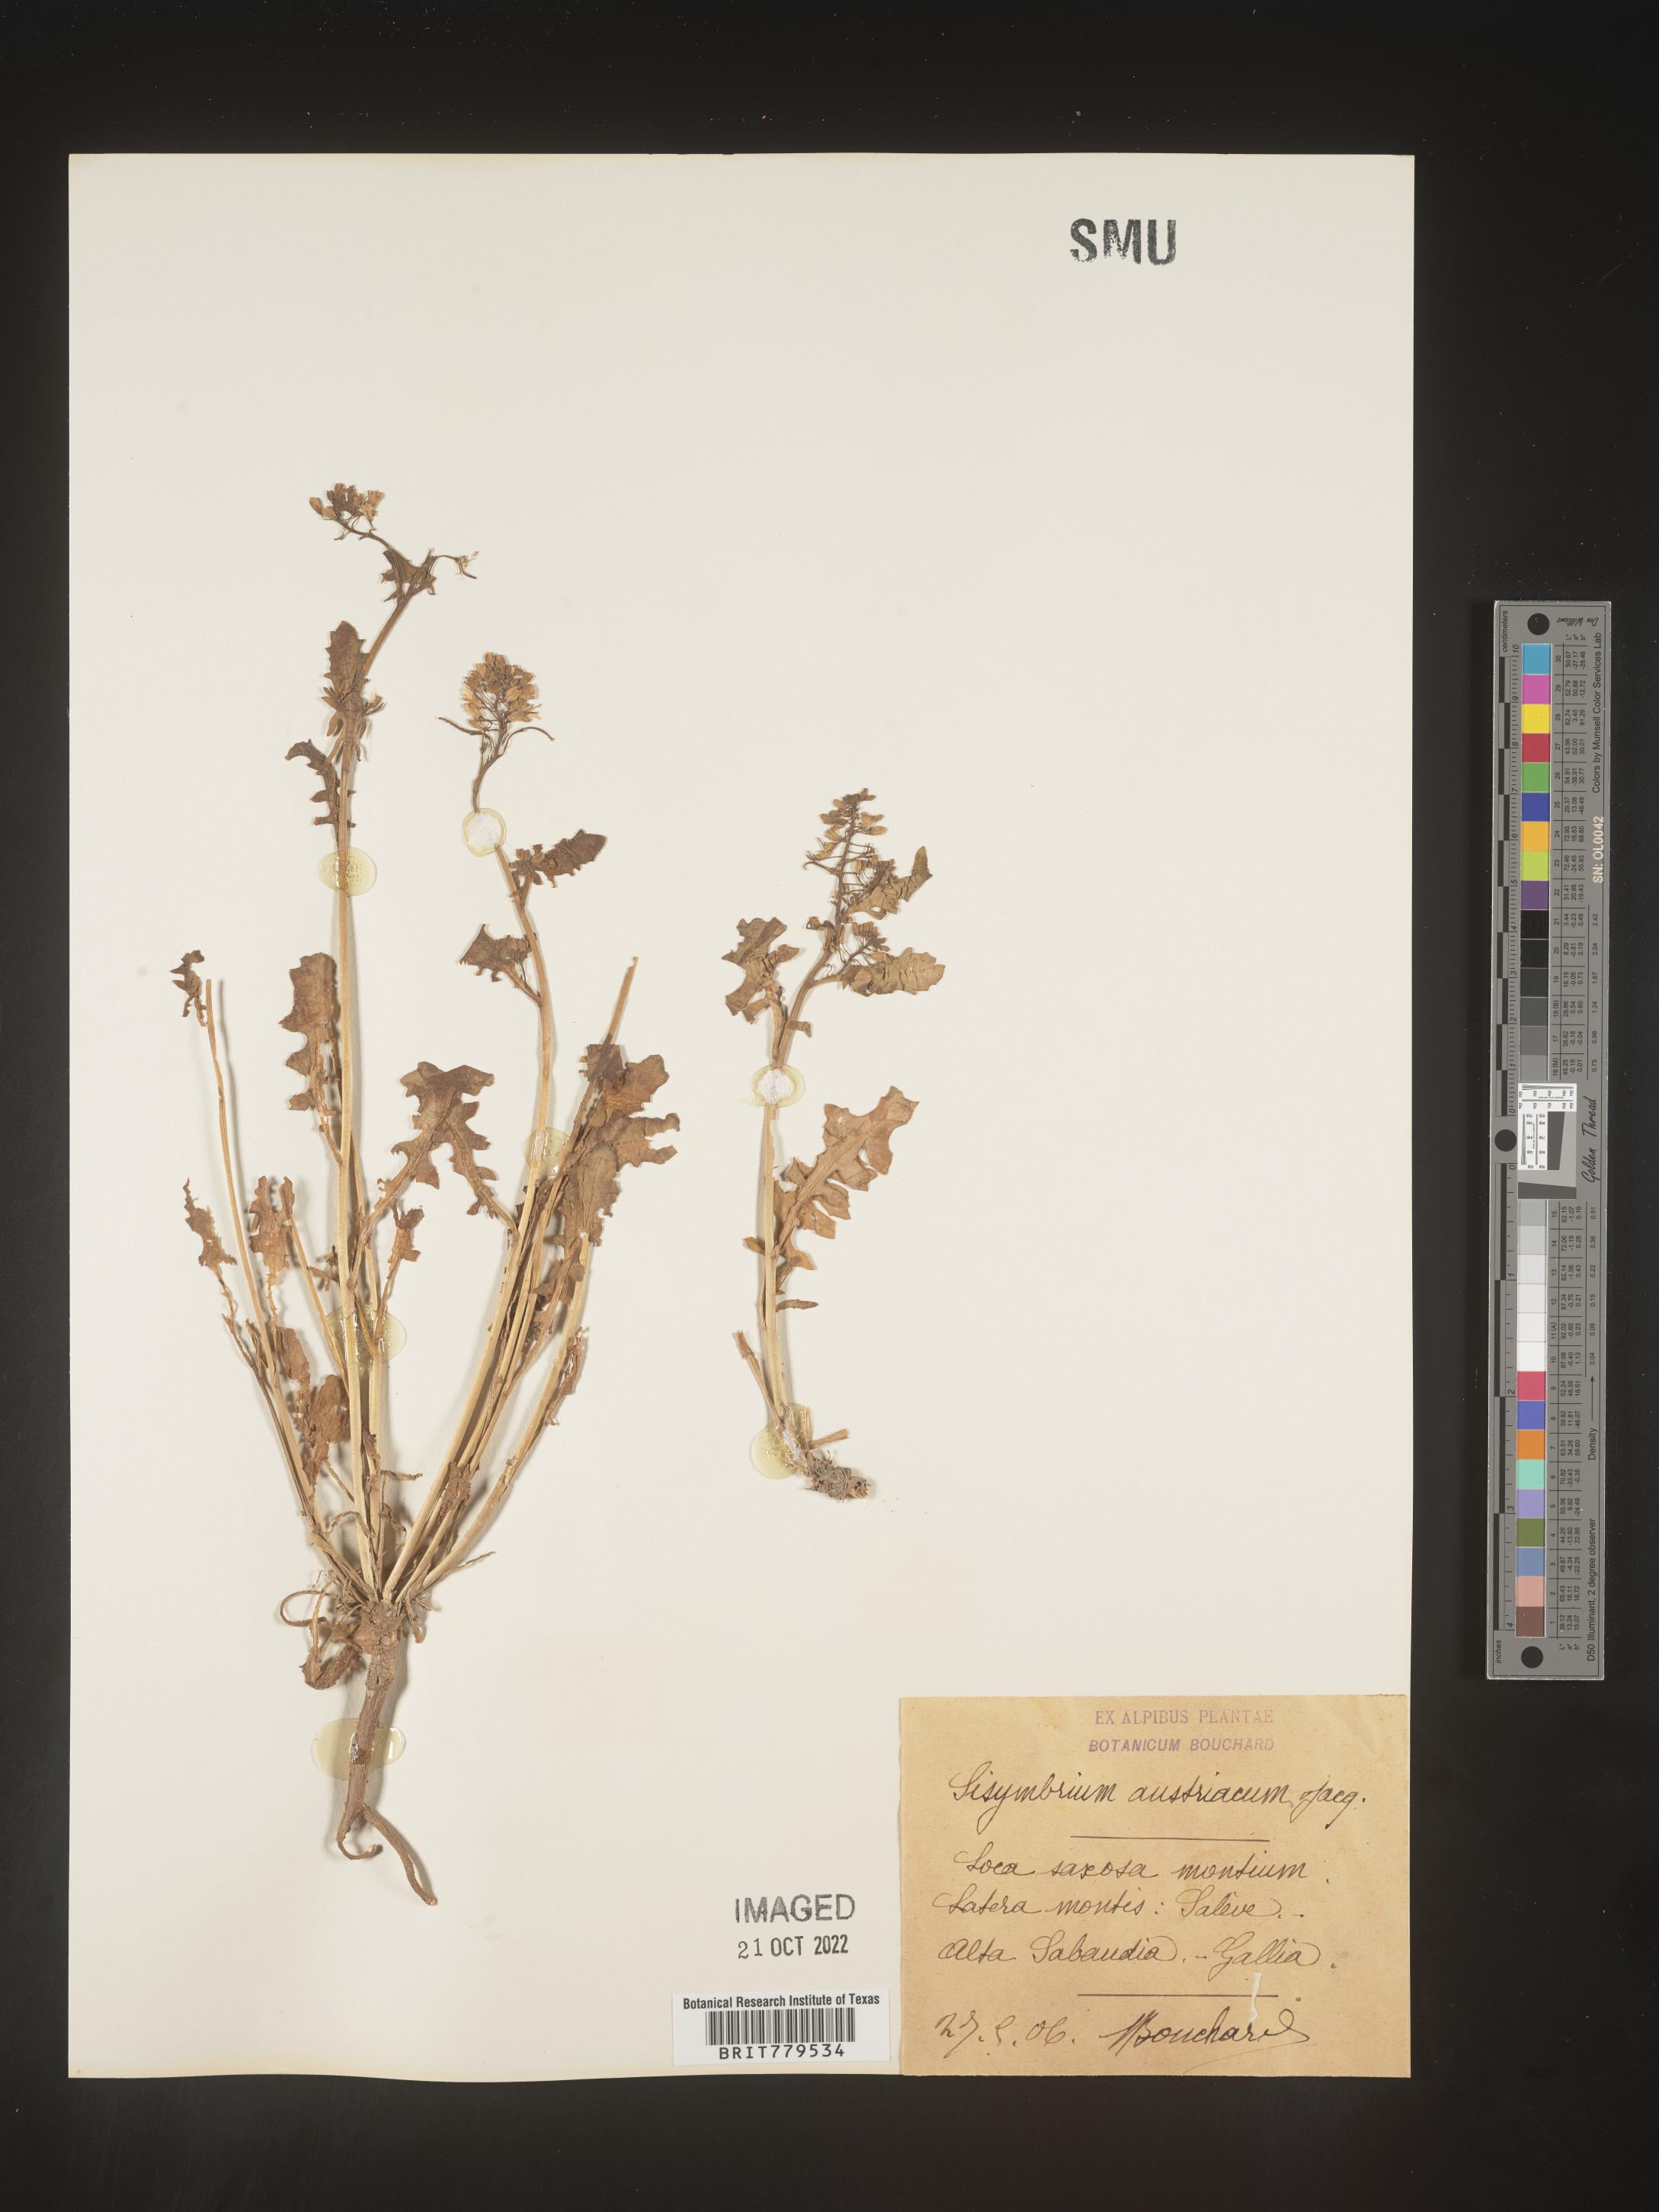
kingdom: Plantae
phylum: Tracheophyta
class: Magnoliopsida
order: Brassicales
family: Brassicaceae
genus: Sisymbrium
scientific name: Sisymbrium
